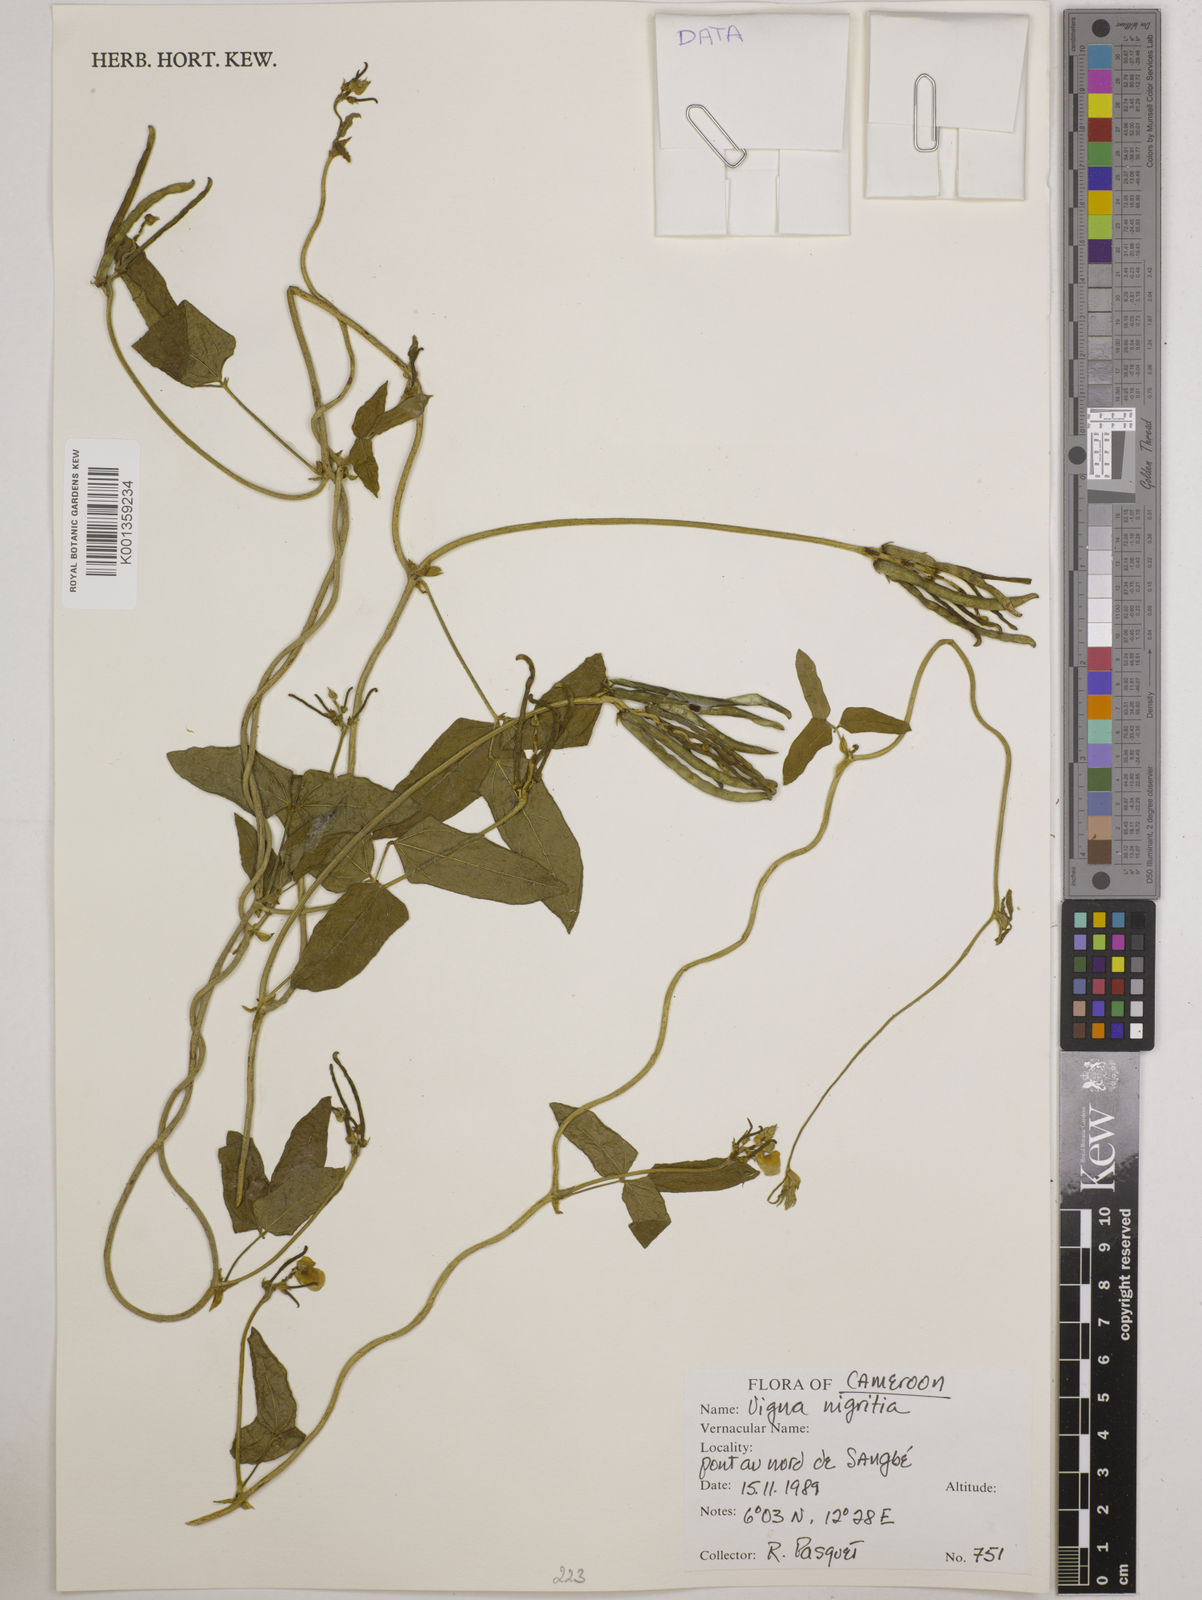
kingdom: Plantae
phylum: Tracheophyta
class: Magnoliopsida
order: Fabales
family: Fabaceae
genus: Vigna
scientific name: Vigna nigritia
